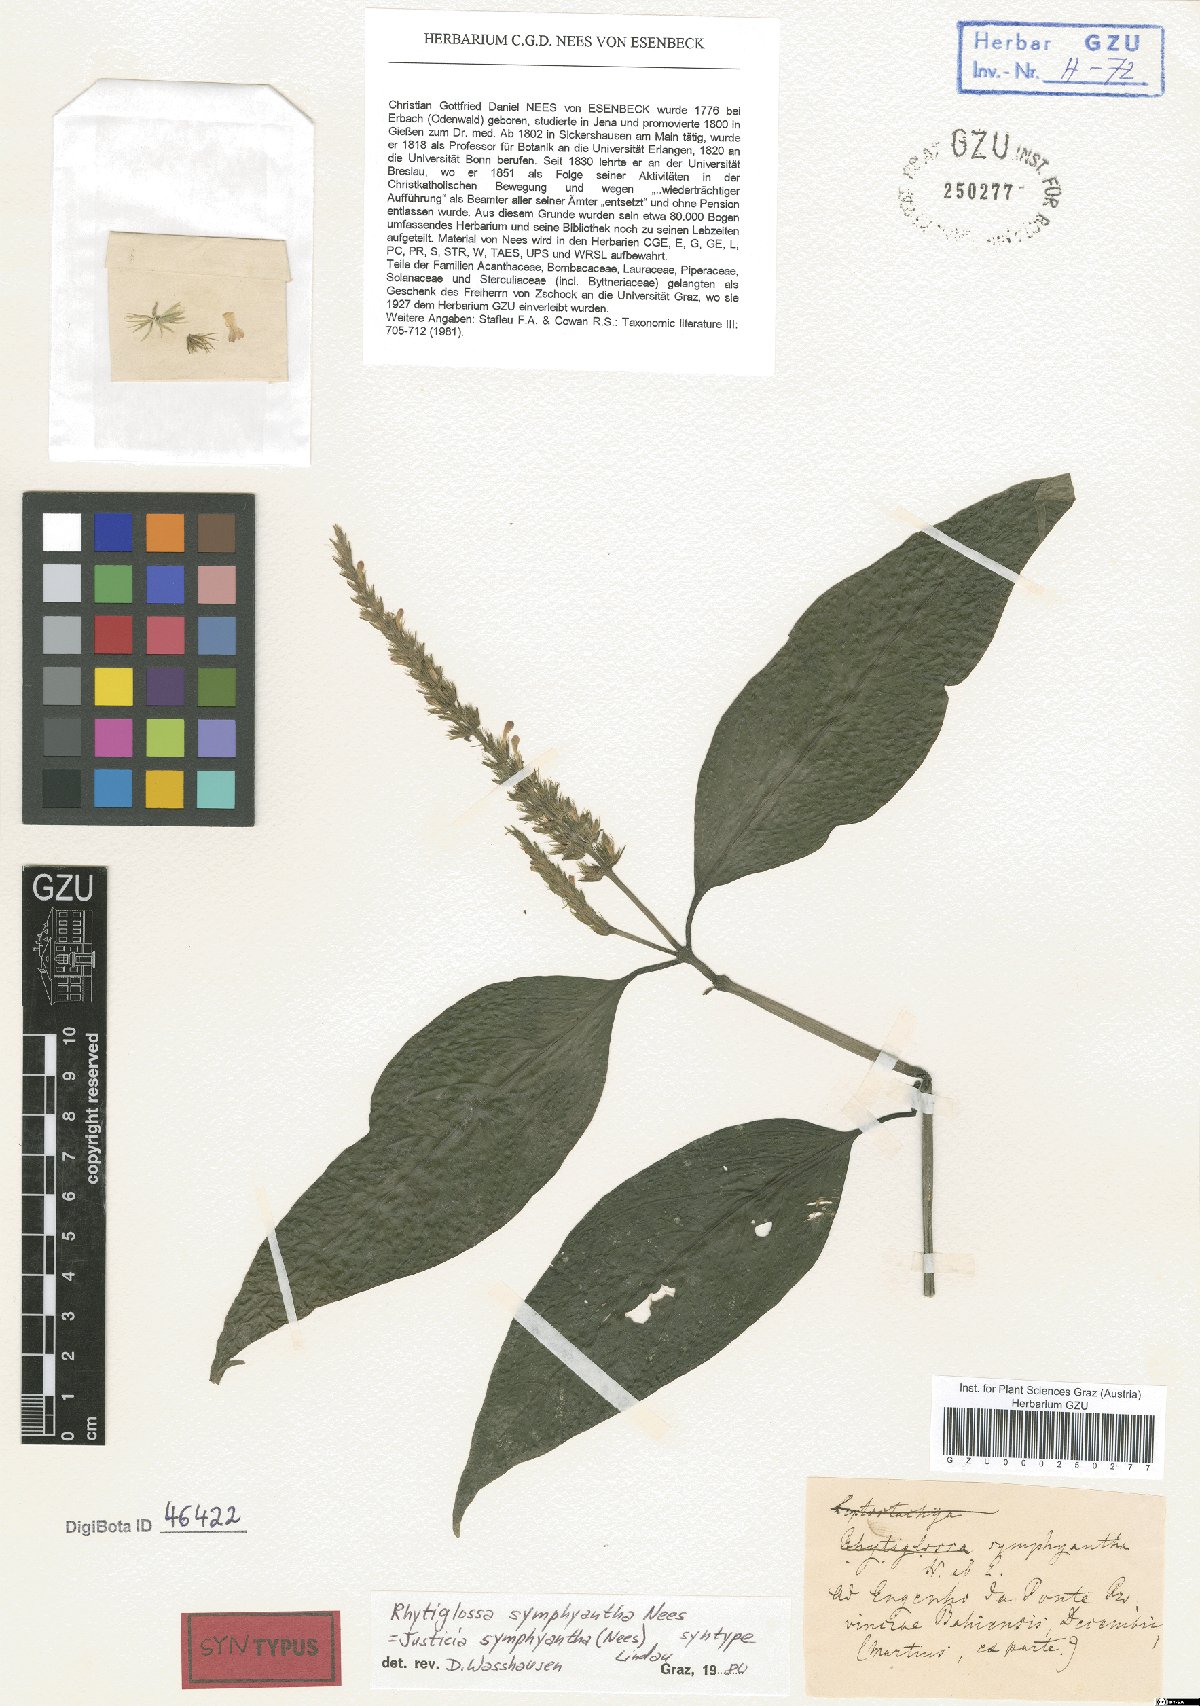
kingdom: Plantae
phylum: Tracheophyta
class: Magnoliopsida
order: Lamiales
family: Acanthaceae
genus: Justicia
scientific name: Justicia symphyantha
